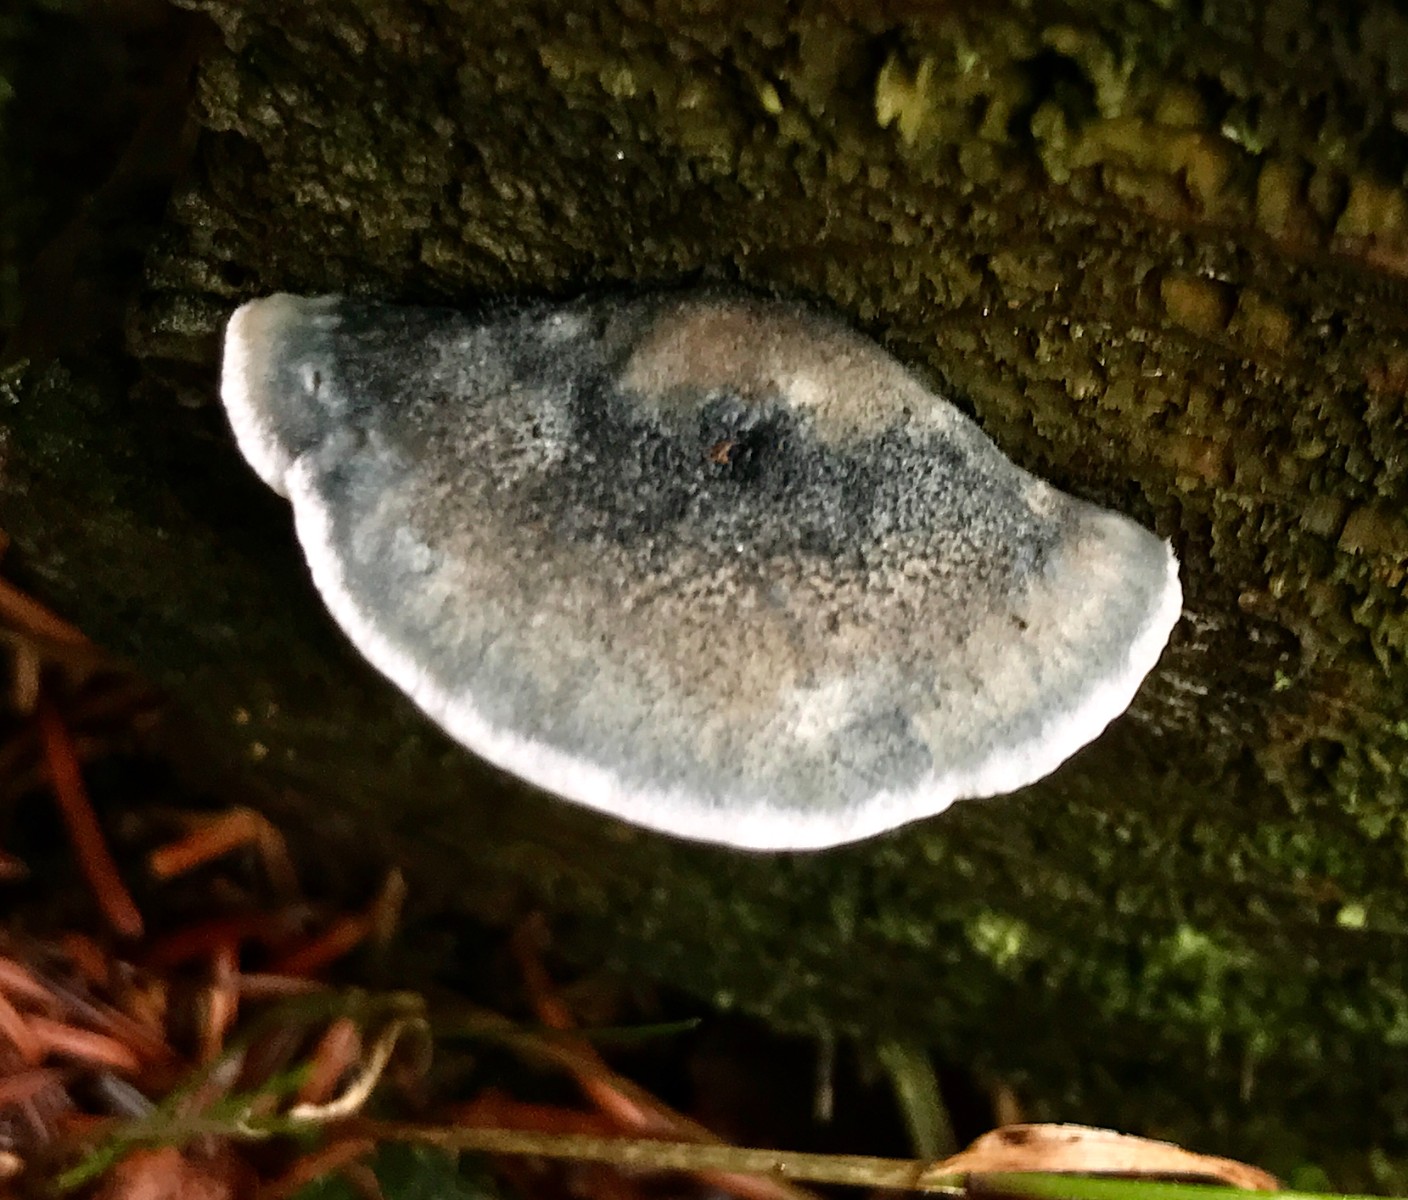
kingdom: Fungi
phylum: Basidiomycota
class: Agaricomycetes
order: Polyporales
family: Polyporaceae
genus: Cyanosporus
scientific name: Cyanosporus caesius
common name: blålig kødporesvamp
